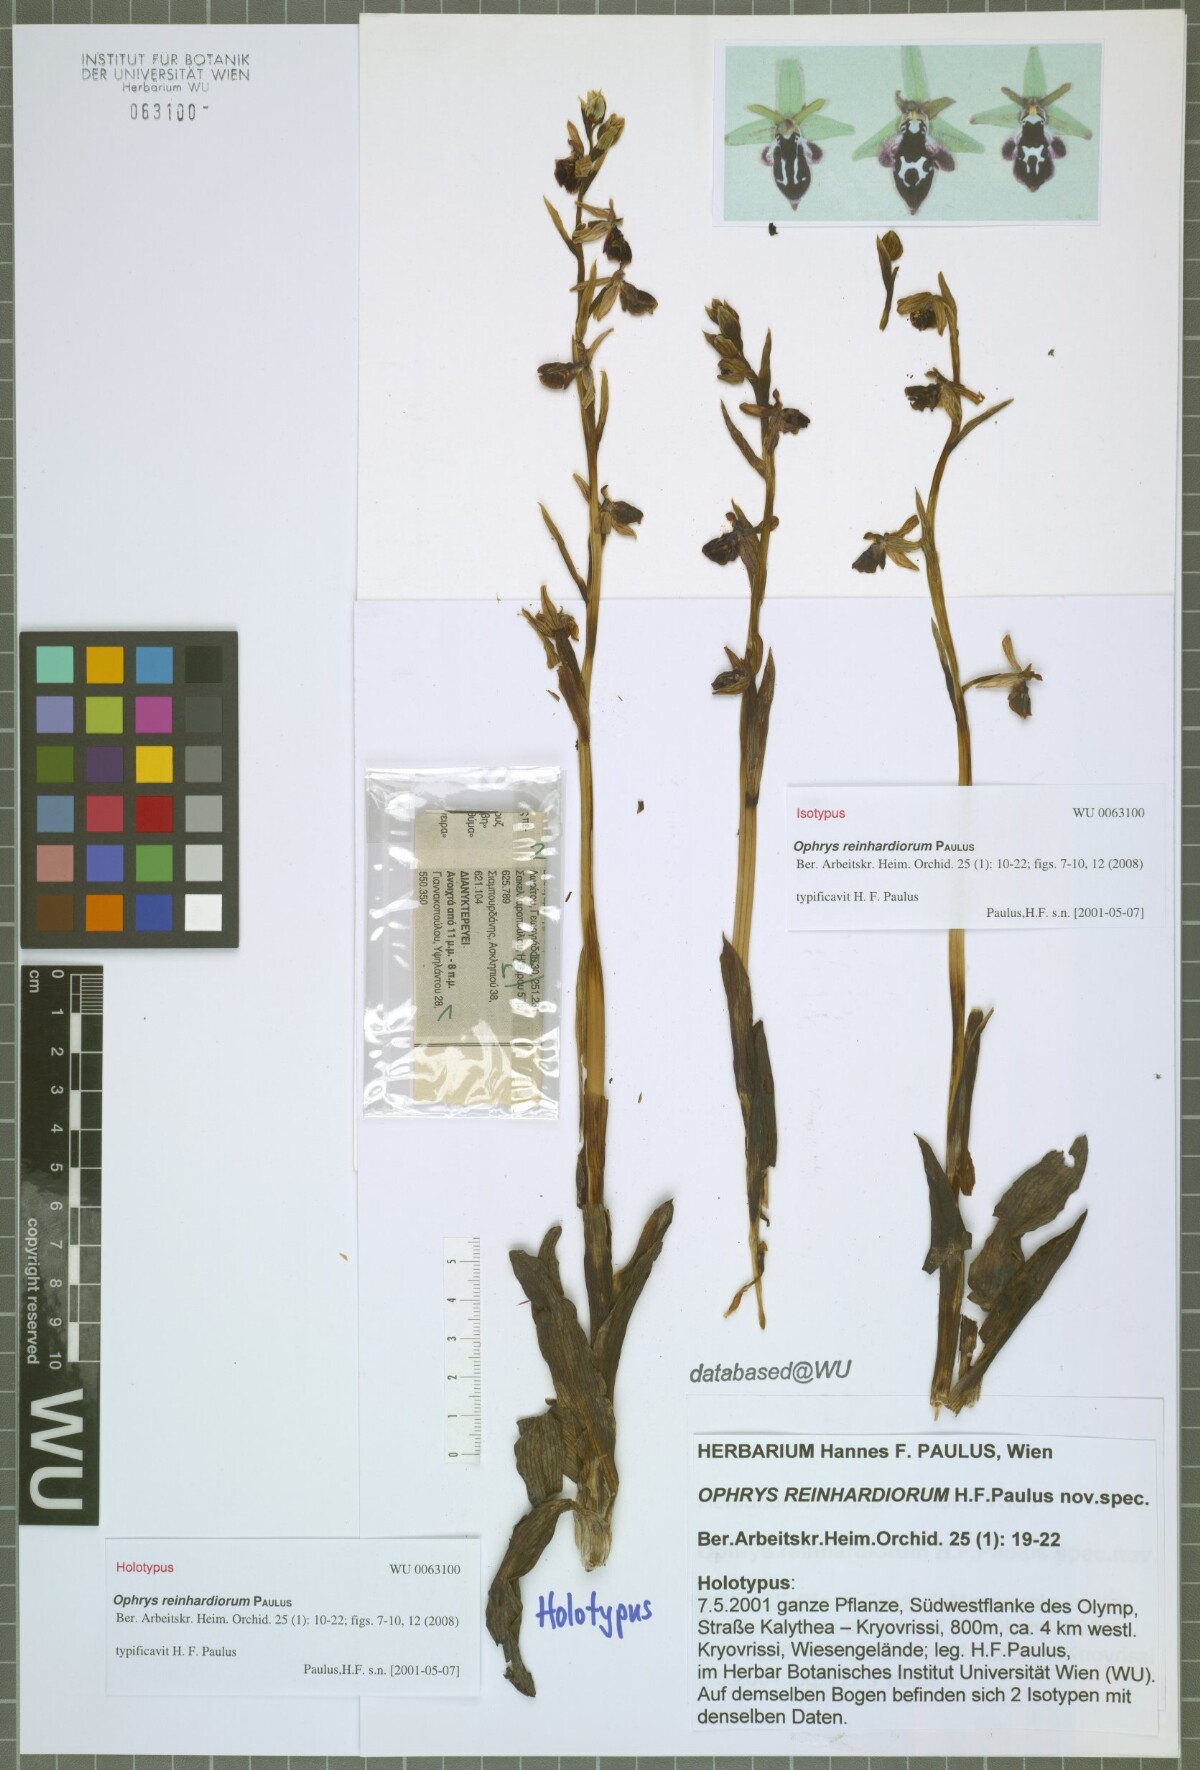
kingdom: Plantae
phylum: Tracheophyta
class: Liliopsida
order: Asparagales
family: Orchidaceae
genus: Ophrys
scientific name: Ophrys reinholdii
